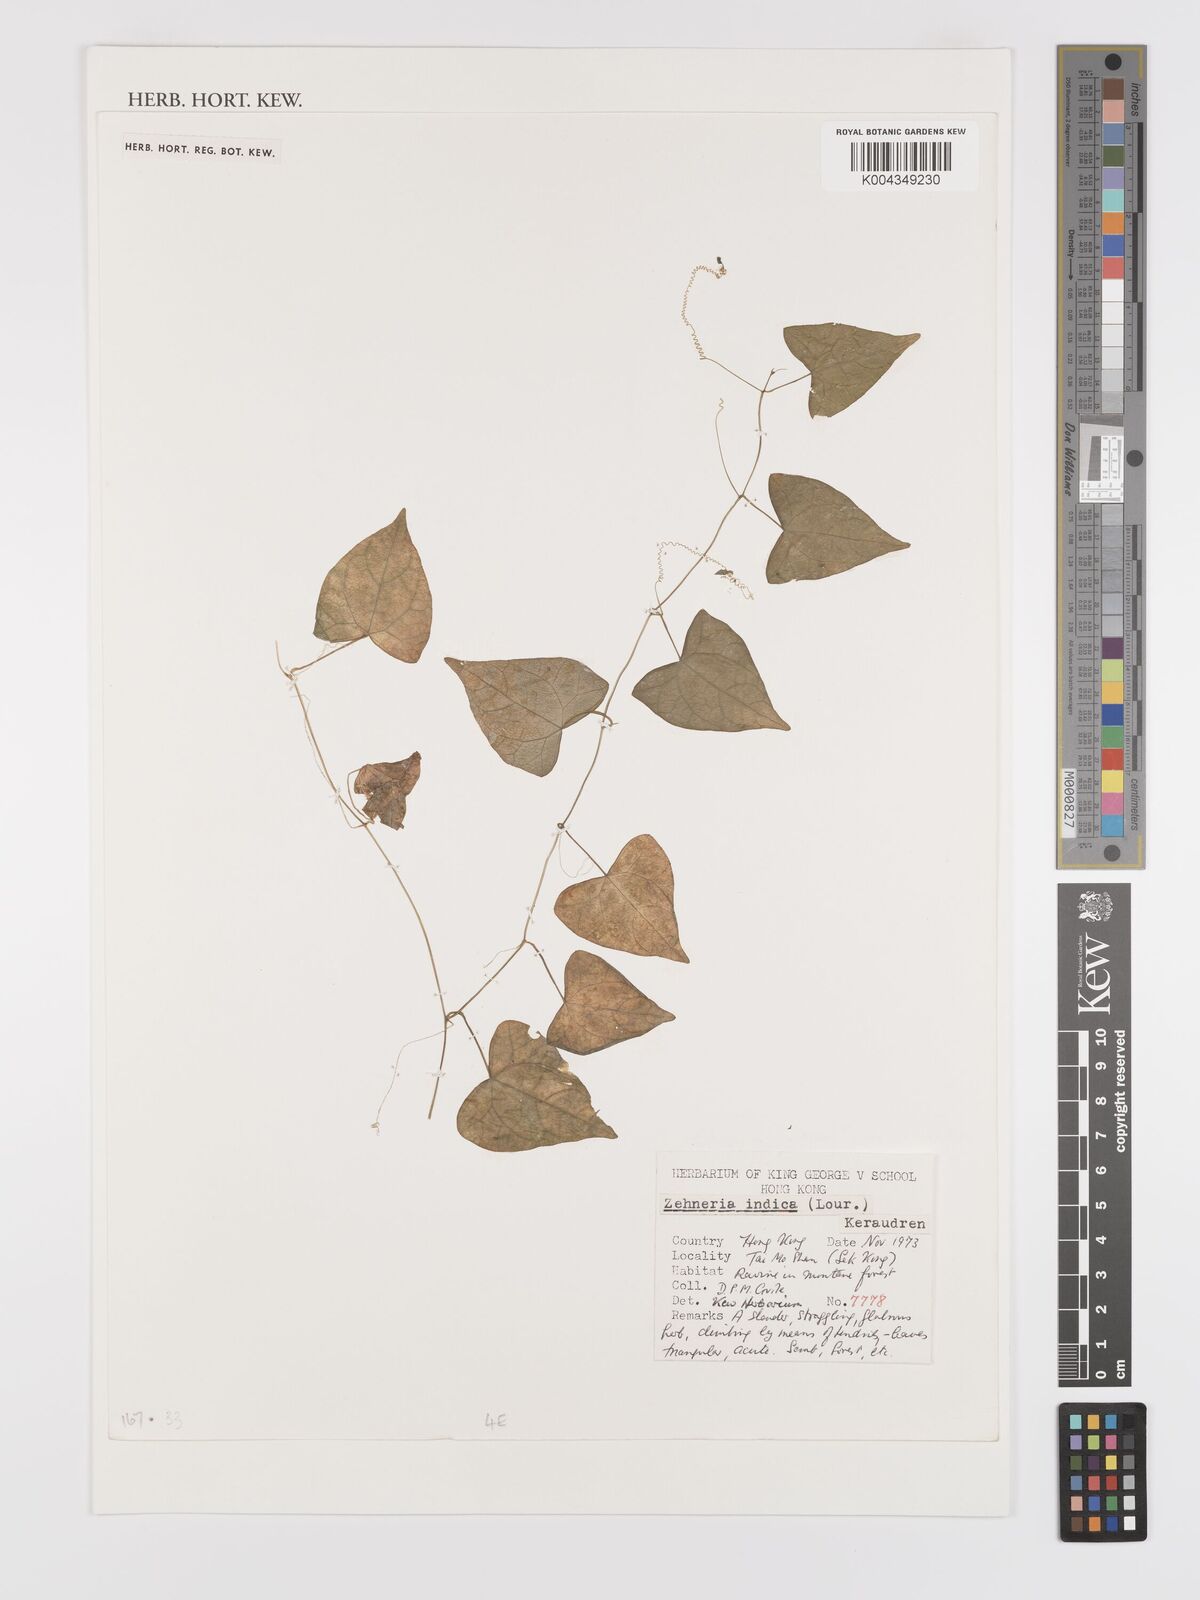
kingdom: Plantae
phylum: Tracheophyta
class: Magnoliopsida
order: Cucurbitales
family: Cucurbitaceae
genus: Zehneria
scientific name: Zehneria japonica
